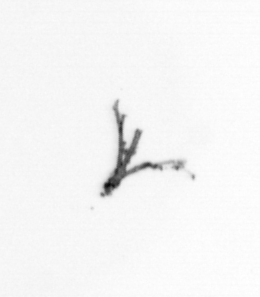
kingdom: Animalia
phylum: Arthropoda
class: Copepoda
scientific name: Copepoda
